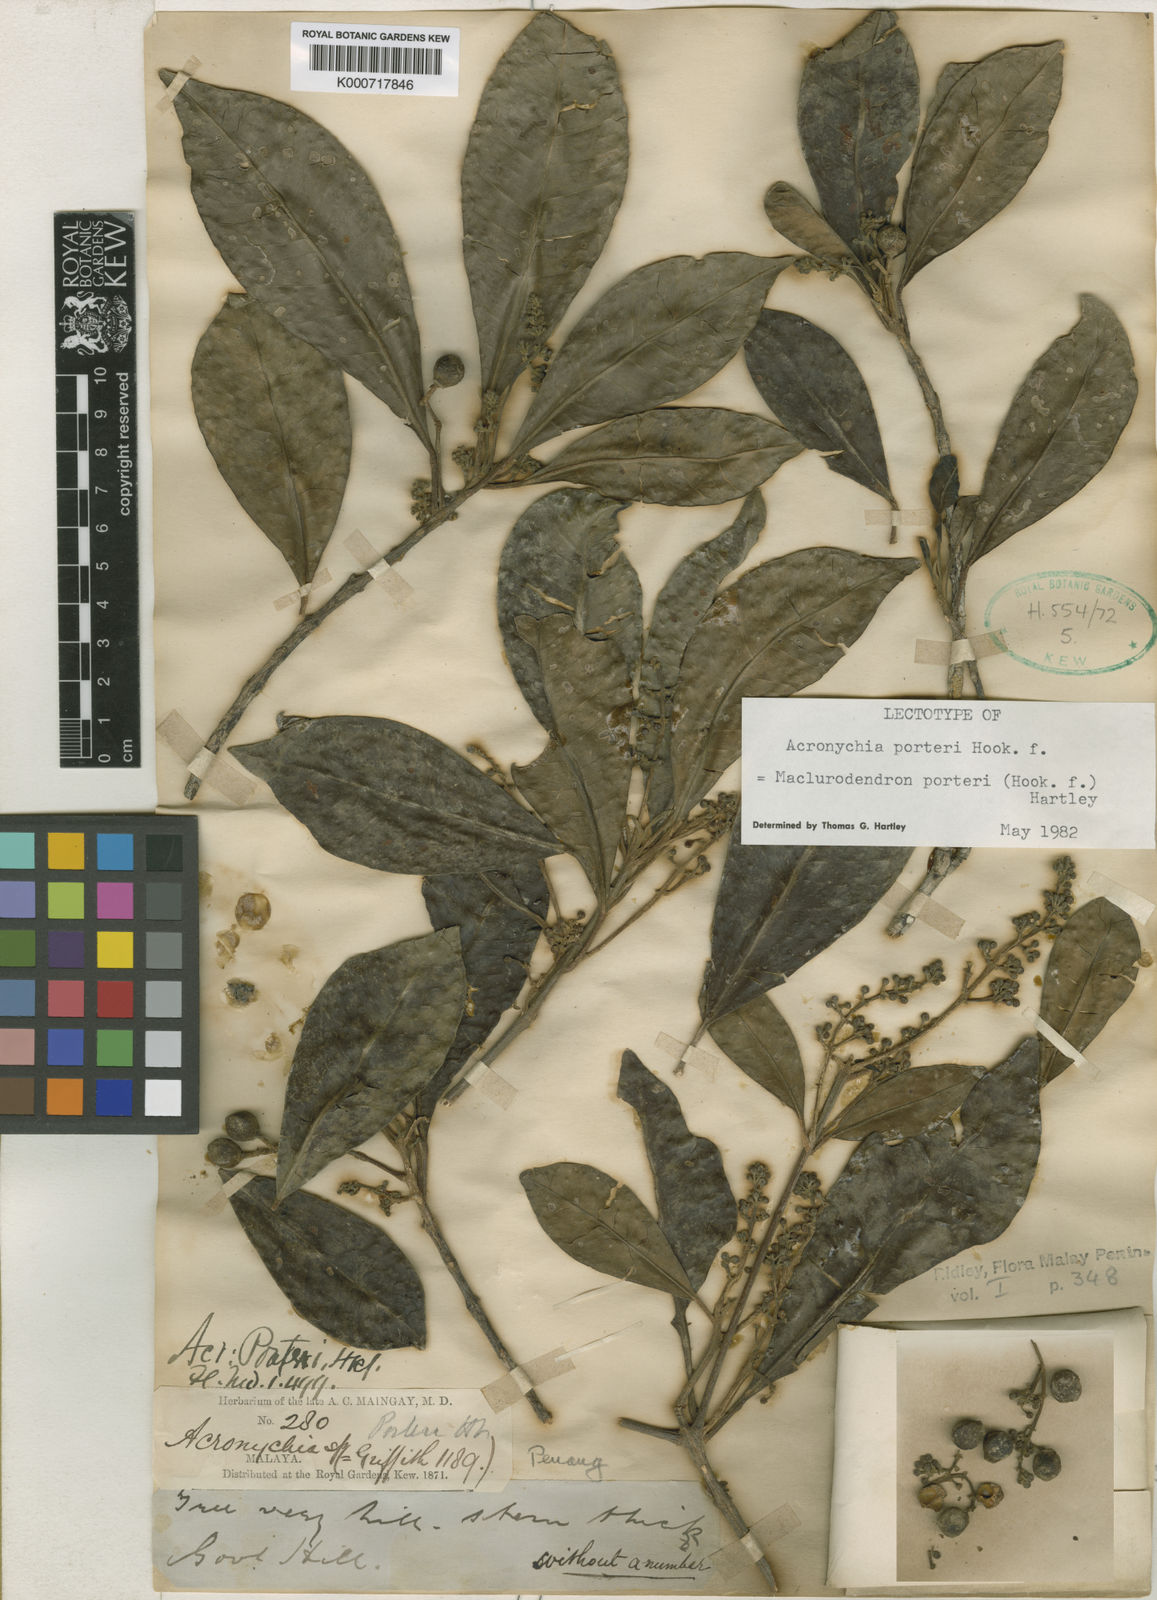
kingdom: Plantae
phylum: Tracheophyta
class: Magnoliopsida
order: Sapindales
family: Rutaceae
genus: Maclurodendron
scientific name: Maclurodendron porteri
